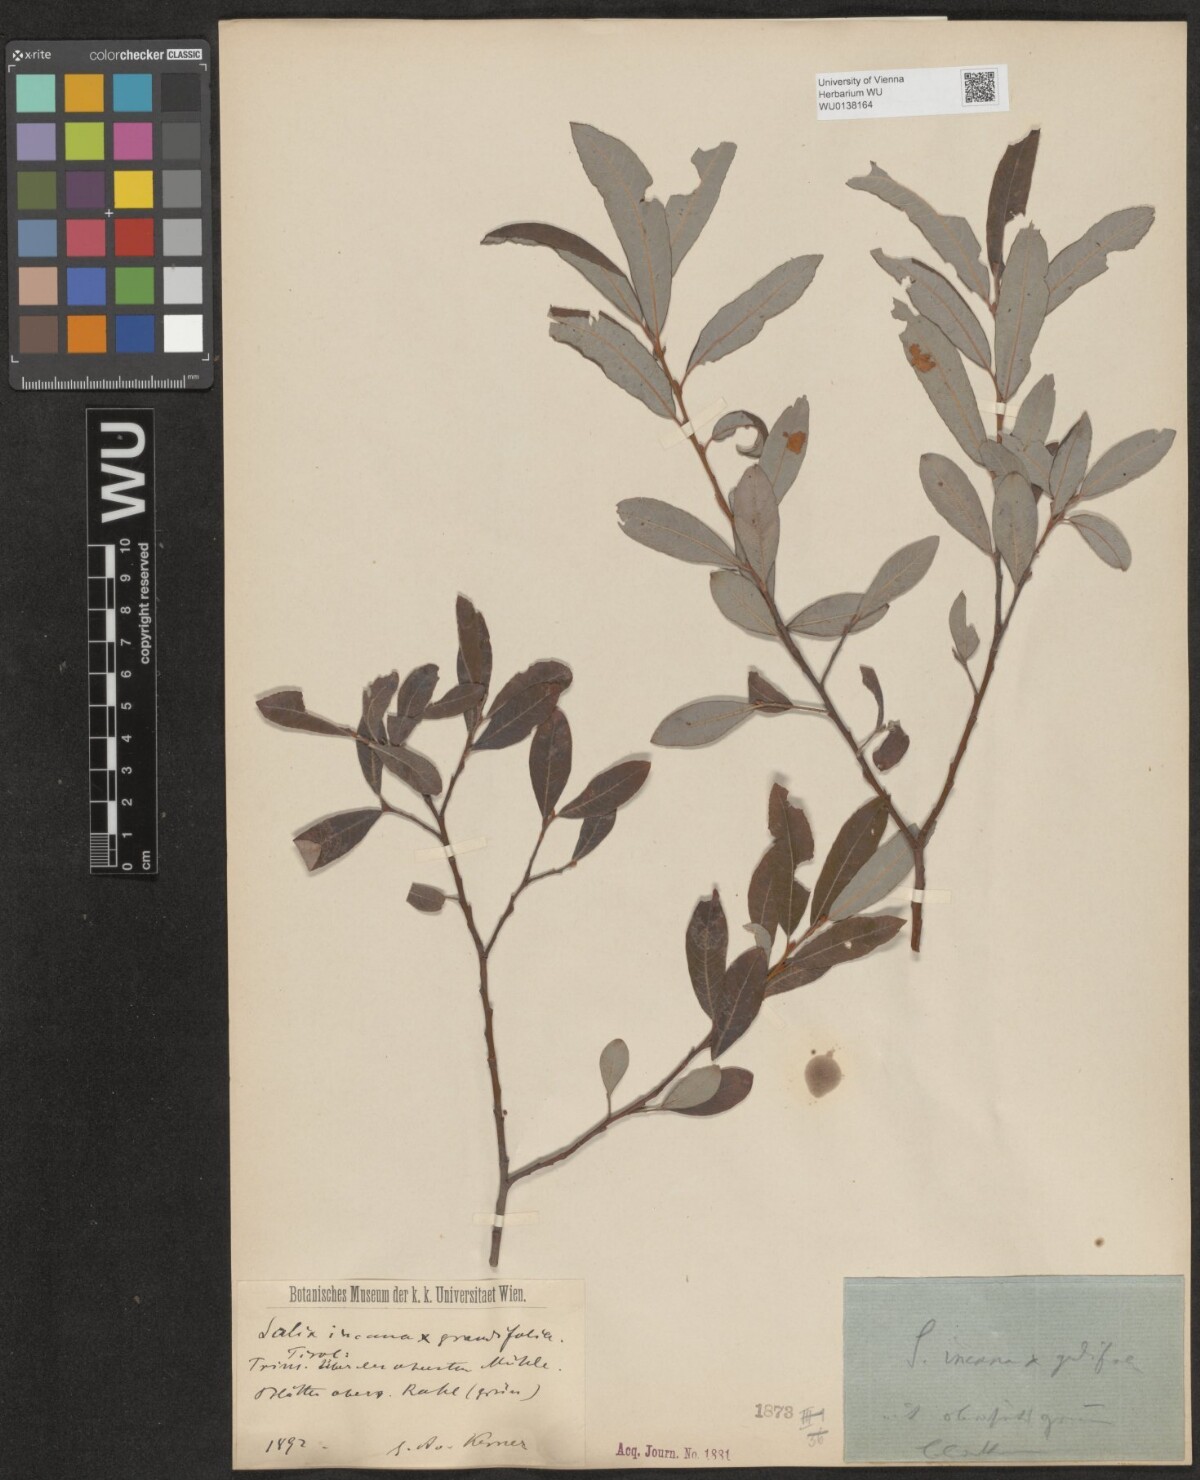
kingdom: Plantae
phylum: Tracheophyta
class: Magnoliopsida
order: Malpighiales
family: Salicaceae
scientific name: Salicaceae
